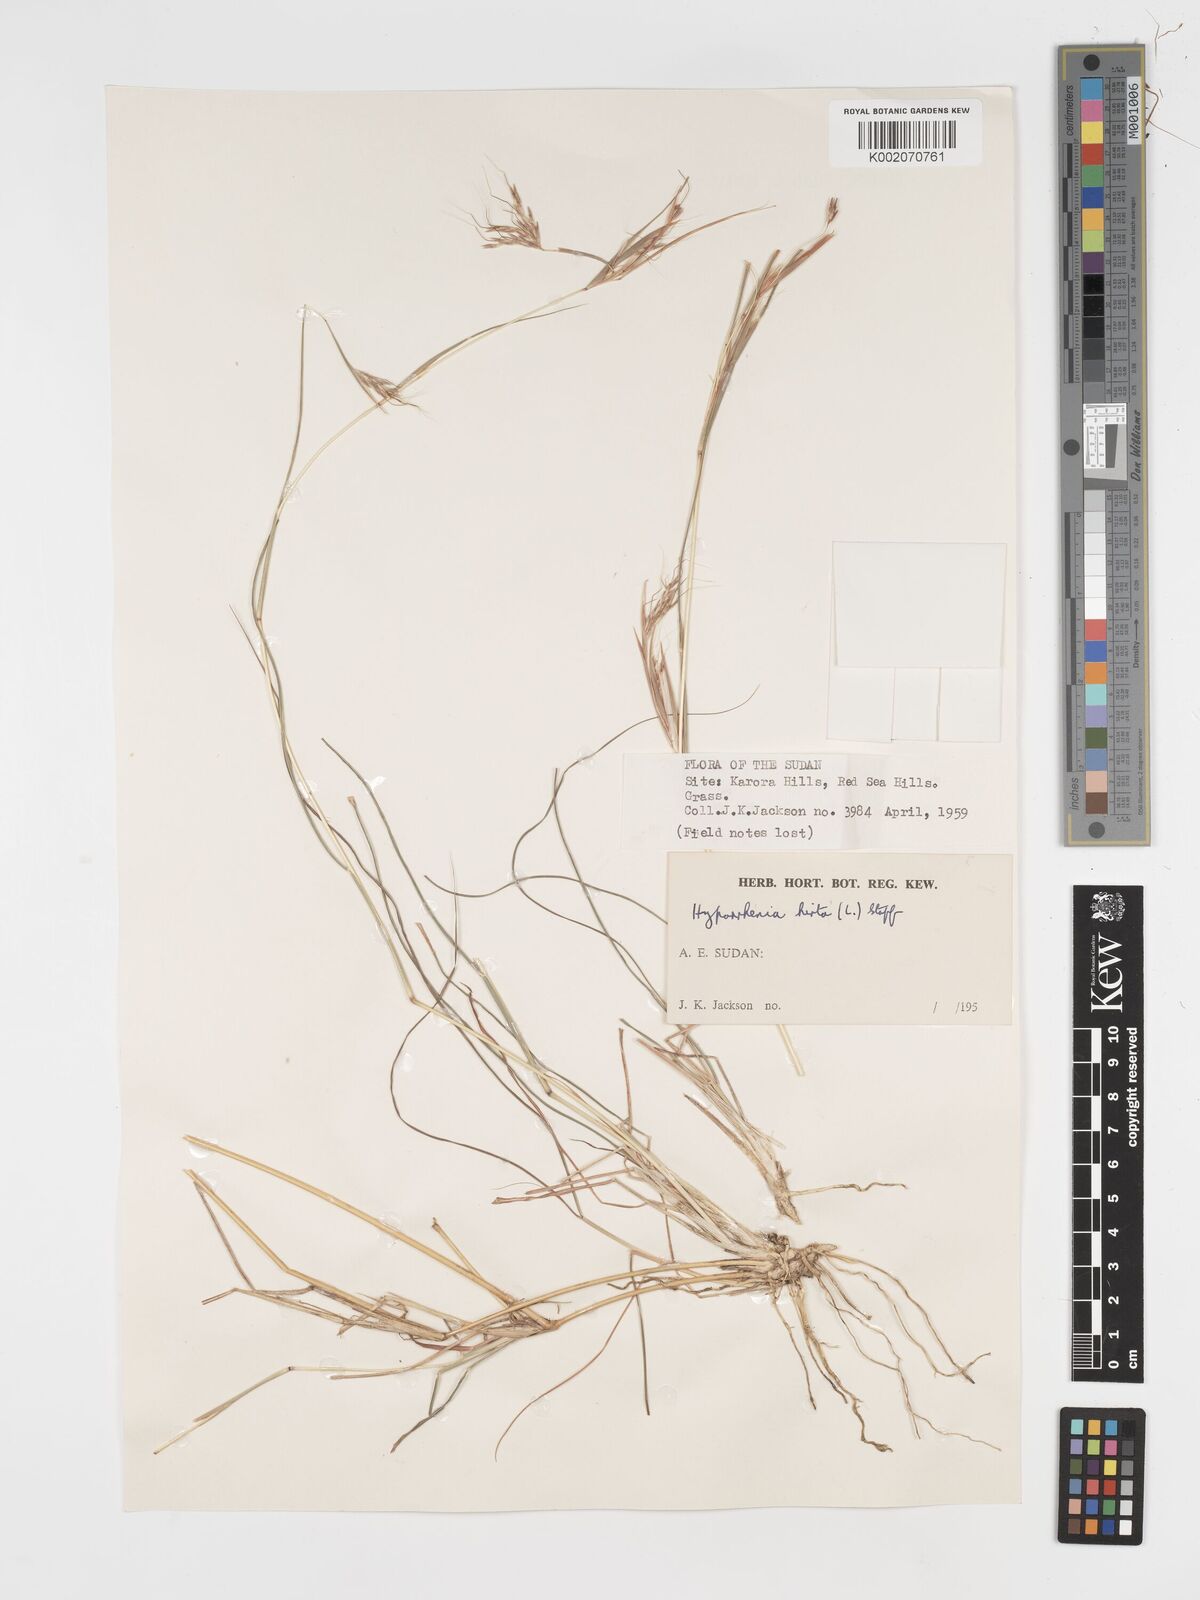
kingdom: Plantae
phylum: Tracheophyta
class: Liliopsida
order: Poales
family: Poaceae
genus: Hyparrhenia
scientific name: Hyparrhenia hirta
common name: Thatching grass
